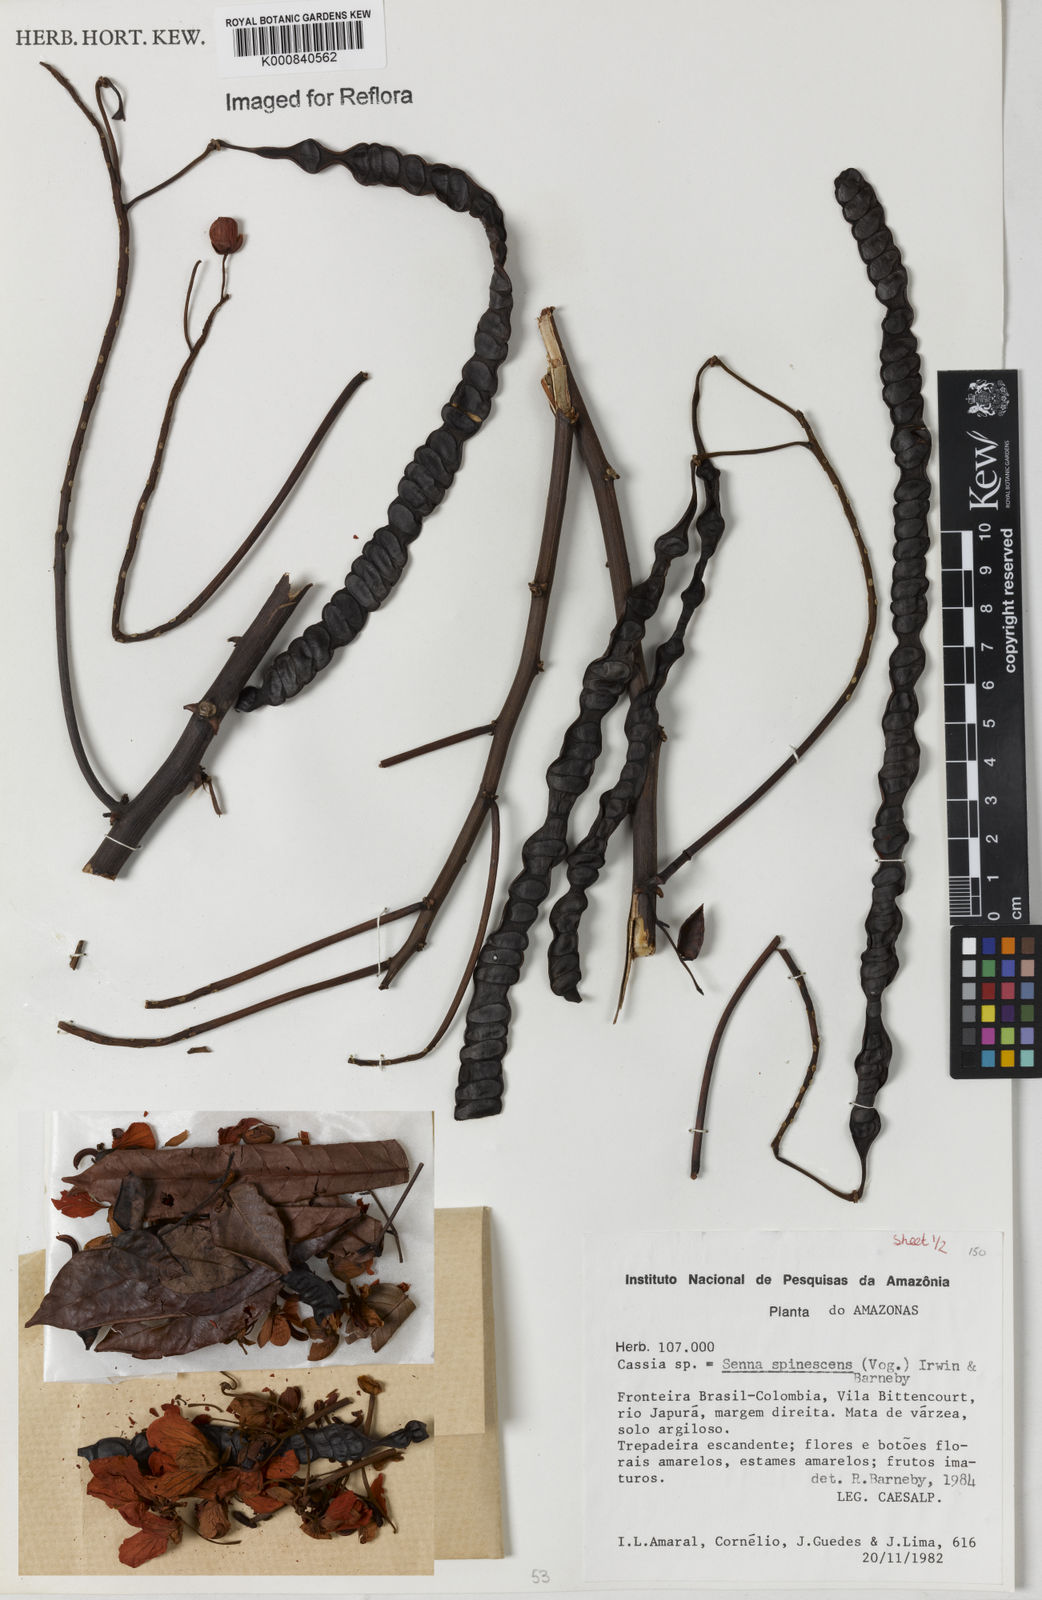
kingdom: Plantae
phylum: Tracheophyta
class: Magnoliopsida
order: Fabales
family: Fabaceae
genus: Senna
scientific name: Senna spinescens
